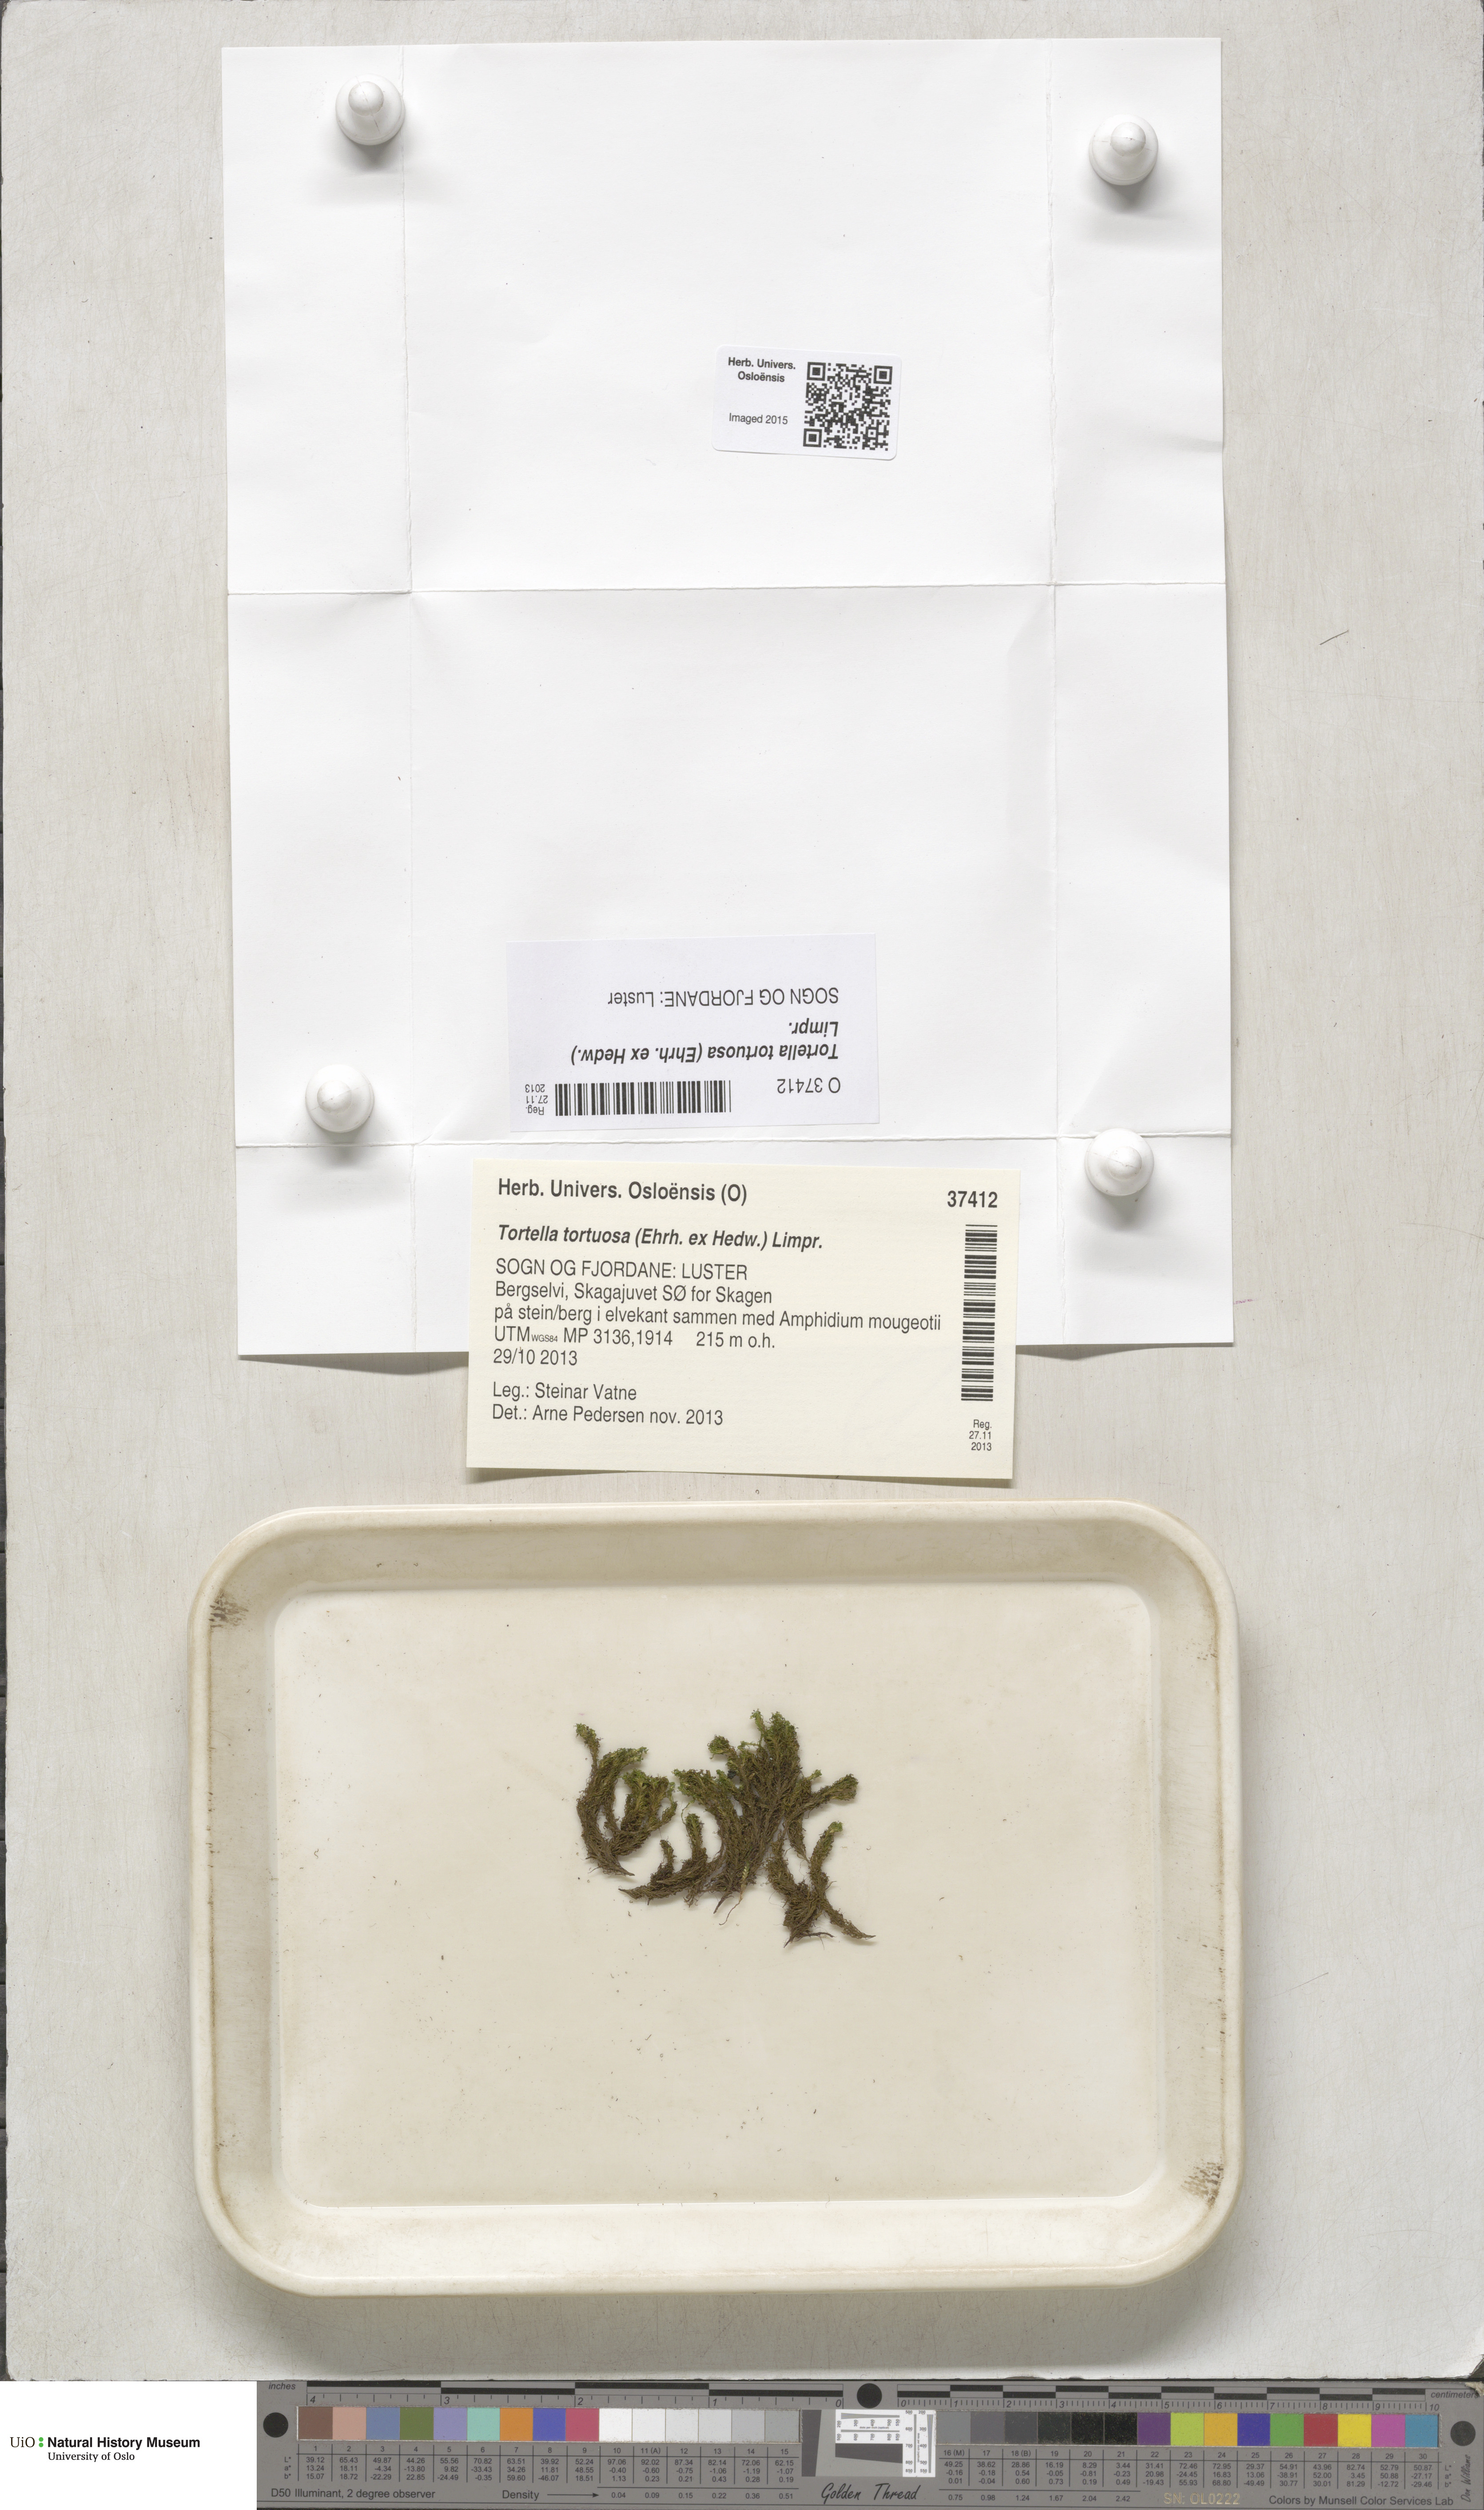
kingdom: Plantae
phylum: Bryophyta
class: Bryopsida
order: Pottiales
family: Pottiaceae
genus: Tortella
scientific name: Tortella tortuosa
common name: Frizzled crisp moss
